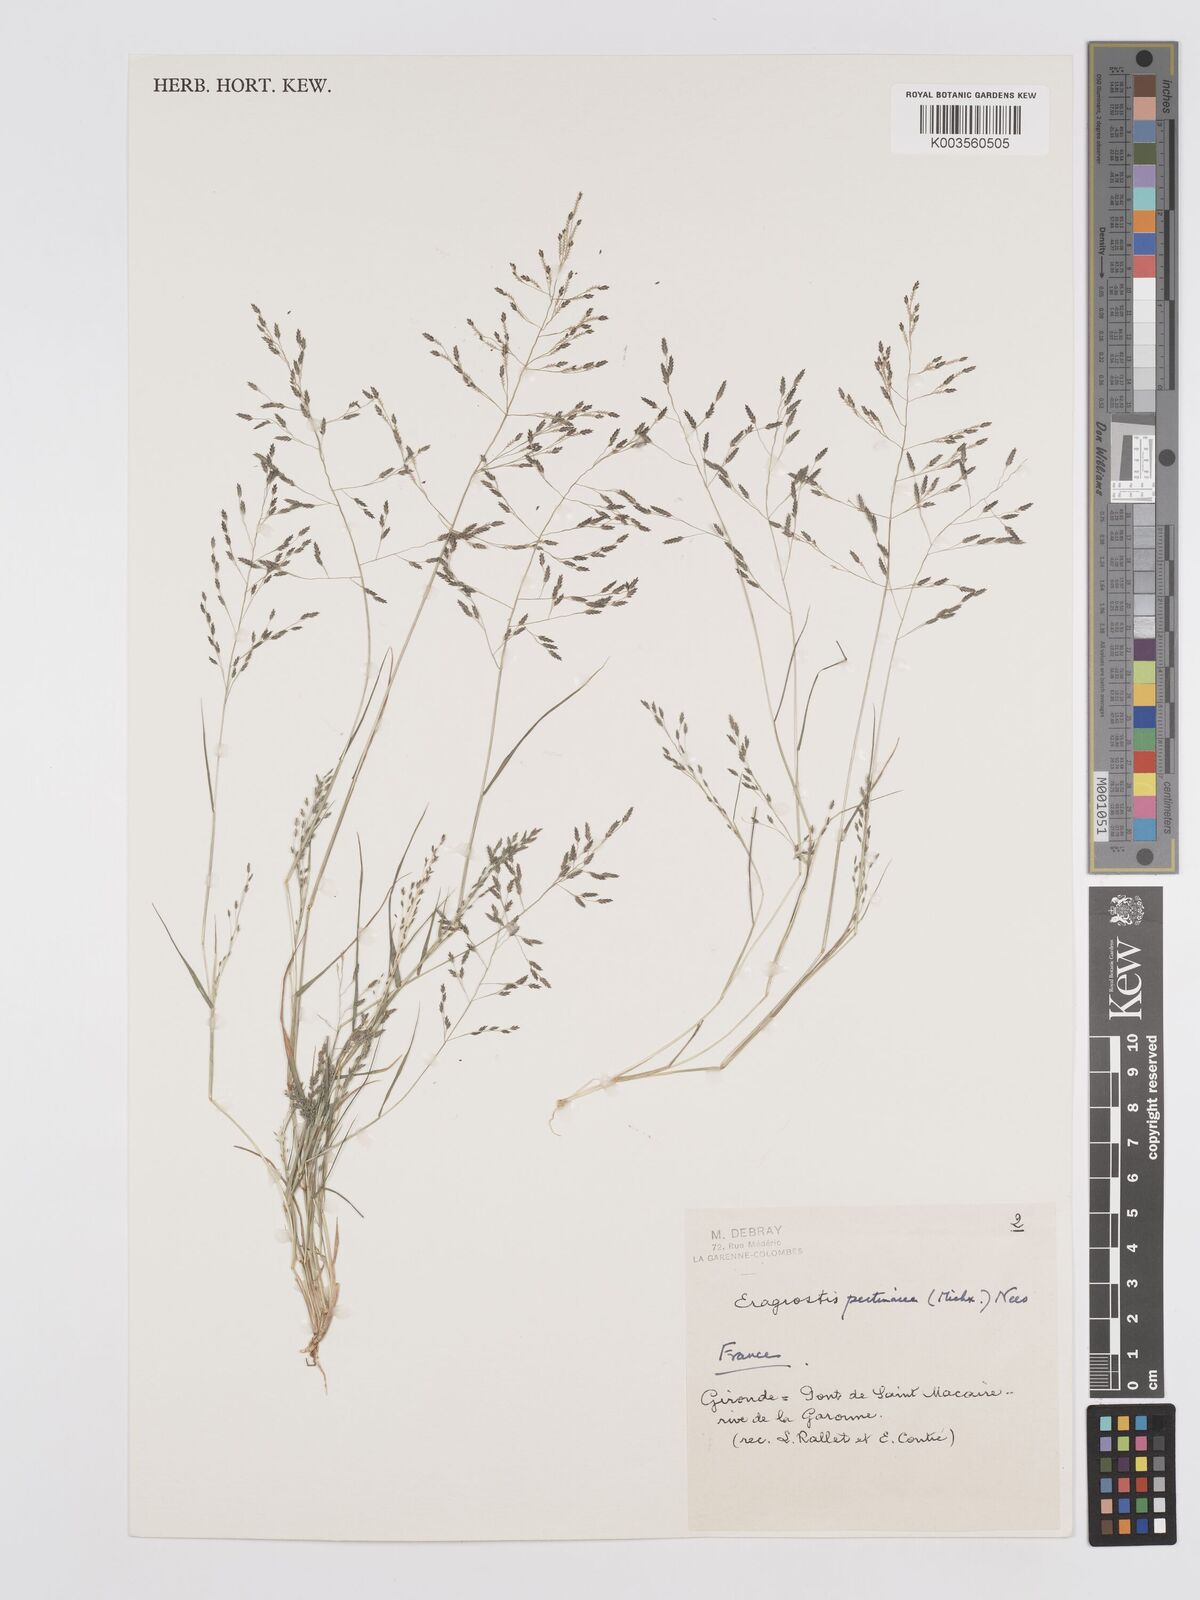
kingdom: Plantae
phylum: Tracheophyta
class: Liliopsida
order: Poales
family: Poaceae
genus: Eragrostis
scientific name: Eragrostis pectinacea
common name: Tufted lovegrass
